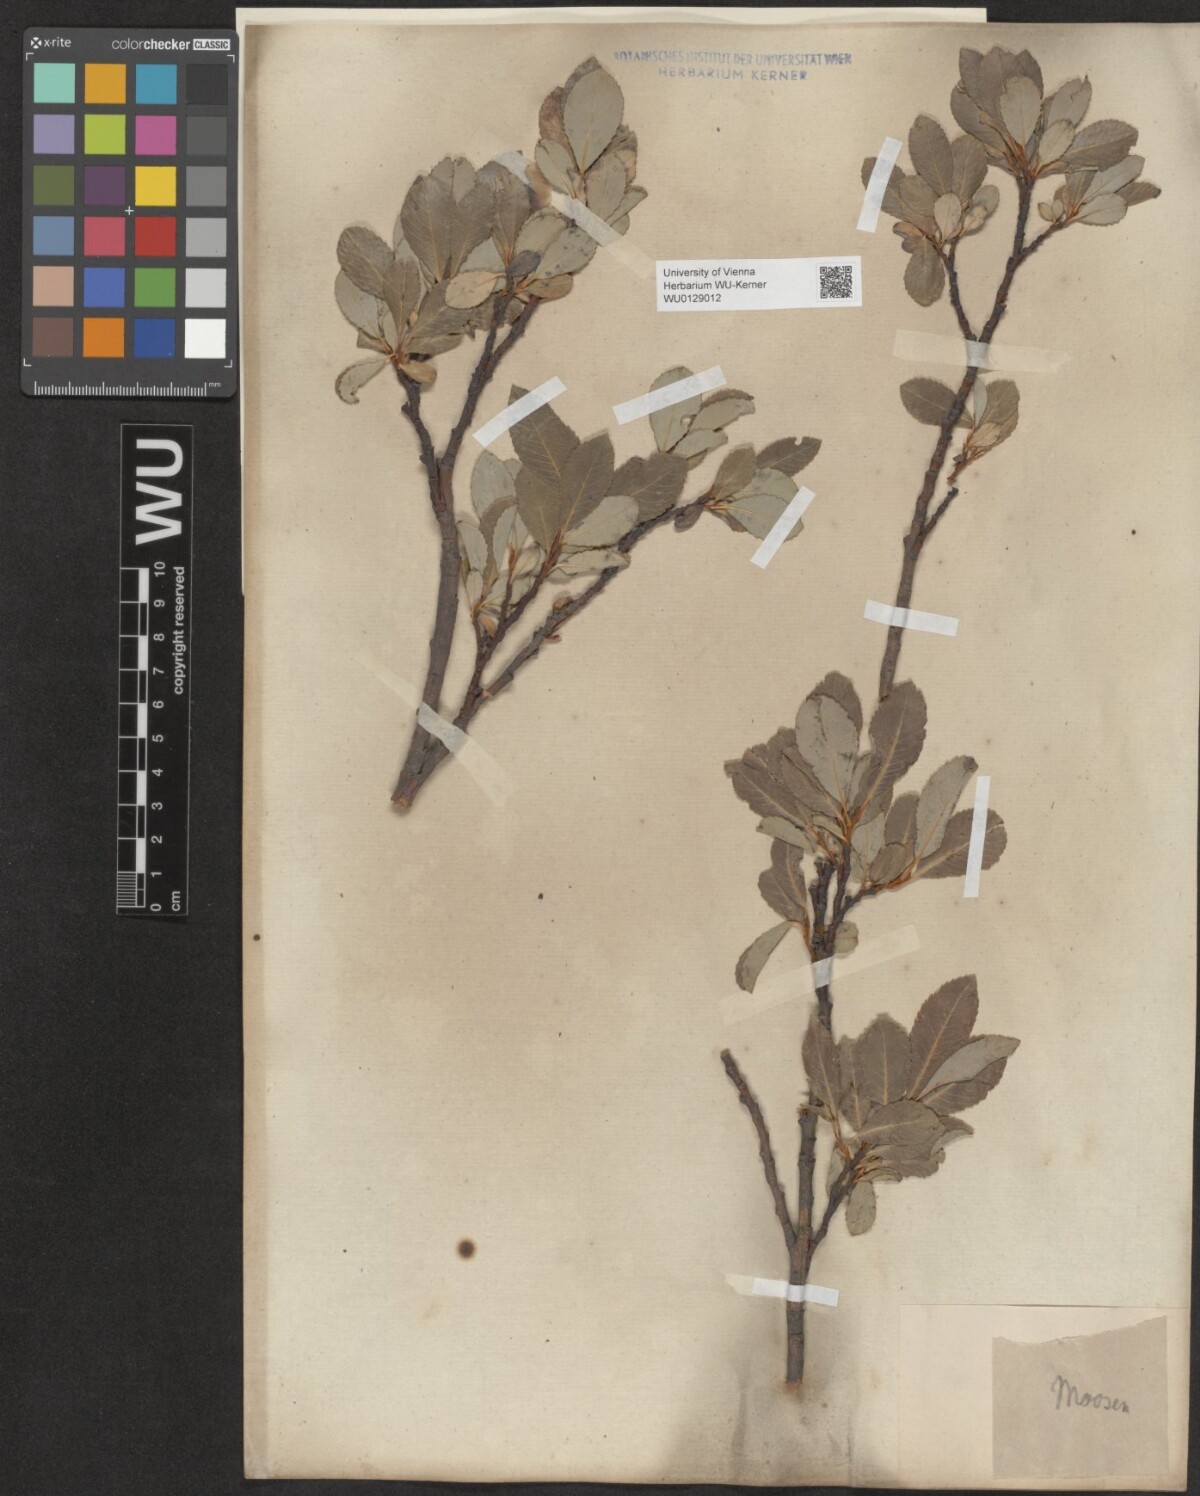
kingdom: Plantae
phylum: Tracheophyta
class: Magnoliopsida
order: Malpighiales
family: Salicaceae
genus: Salix
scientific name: Salix glabra
